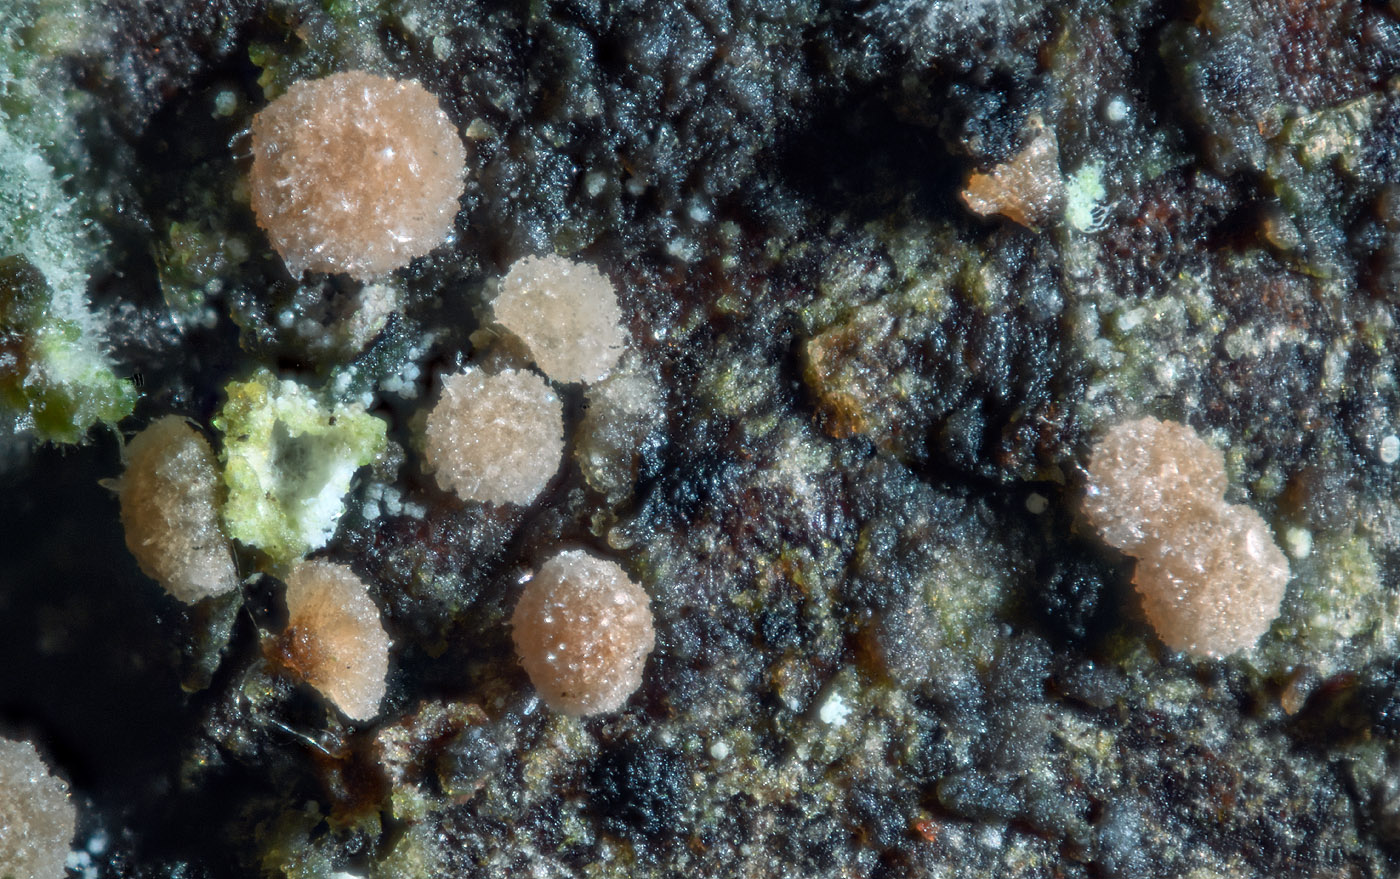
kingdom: Fungi
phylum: Ascomycota
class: Leotiomycetes
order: Helotiales
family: Helotiaceae
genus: Gorgoniceps
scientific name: Gorgoniceps aridula
